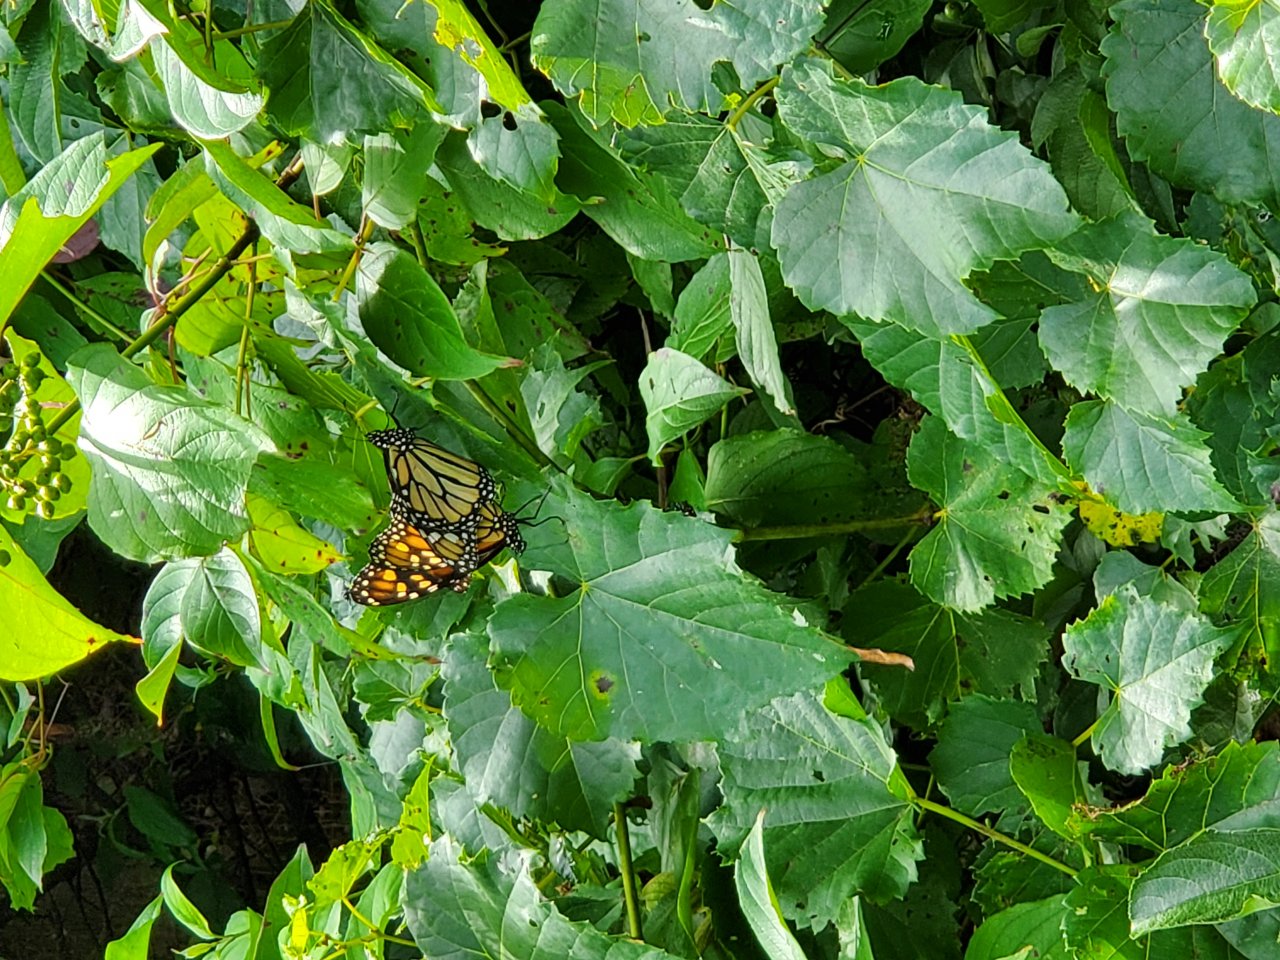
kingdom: Animalia
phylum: Arthropoda
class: Insecta
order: Lepidoptera
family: Nymphalidae
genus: Danaus
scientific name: Danaus plexippus
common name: Monarch
